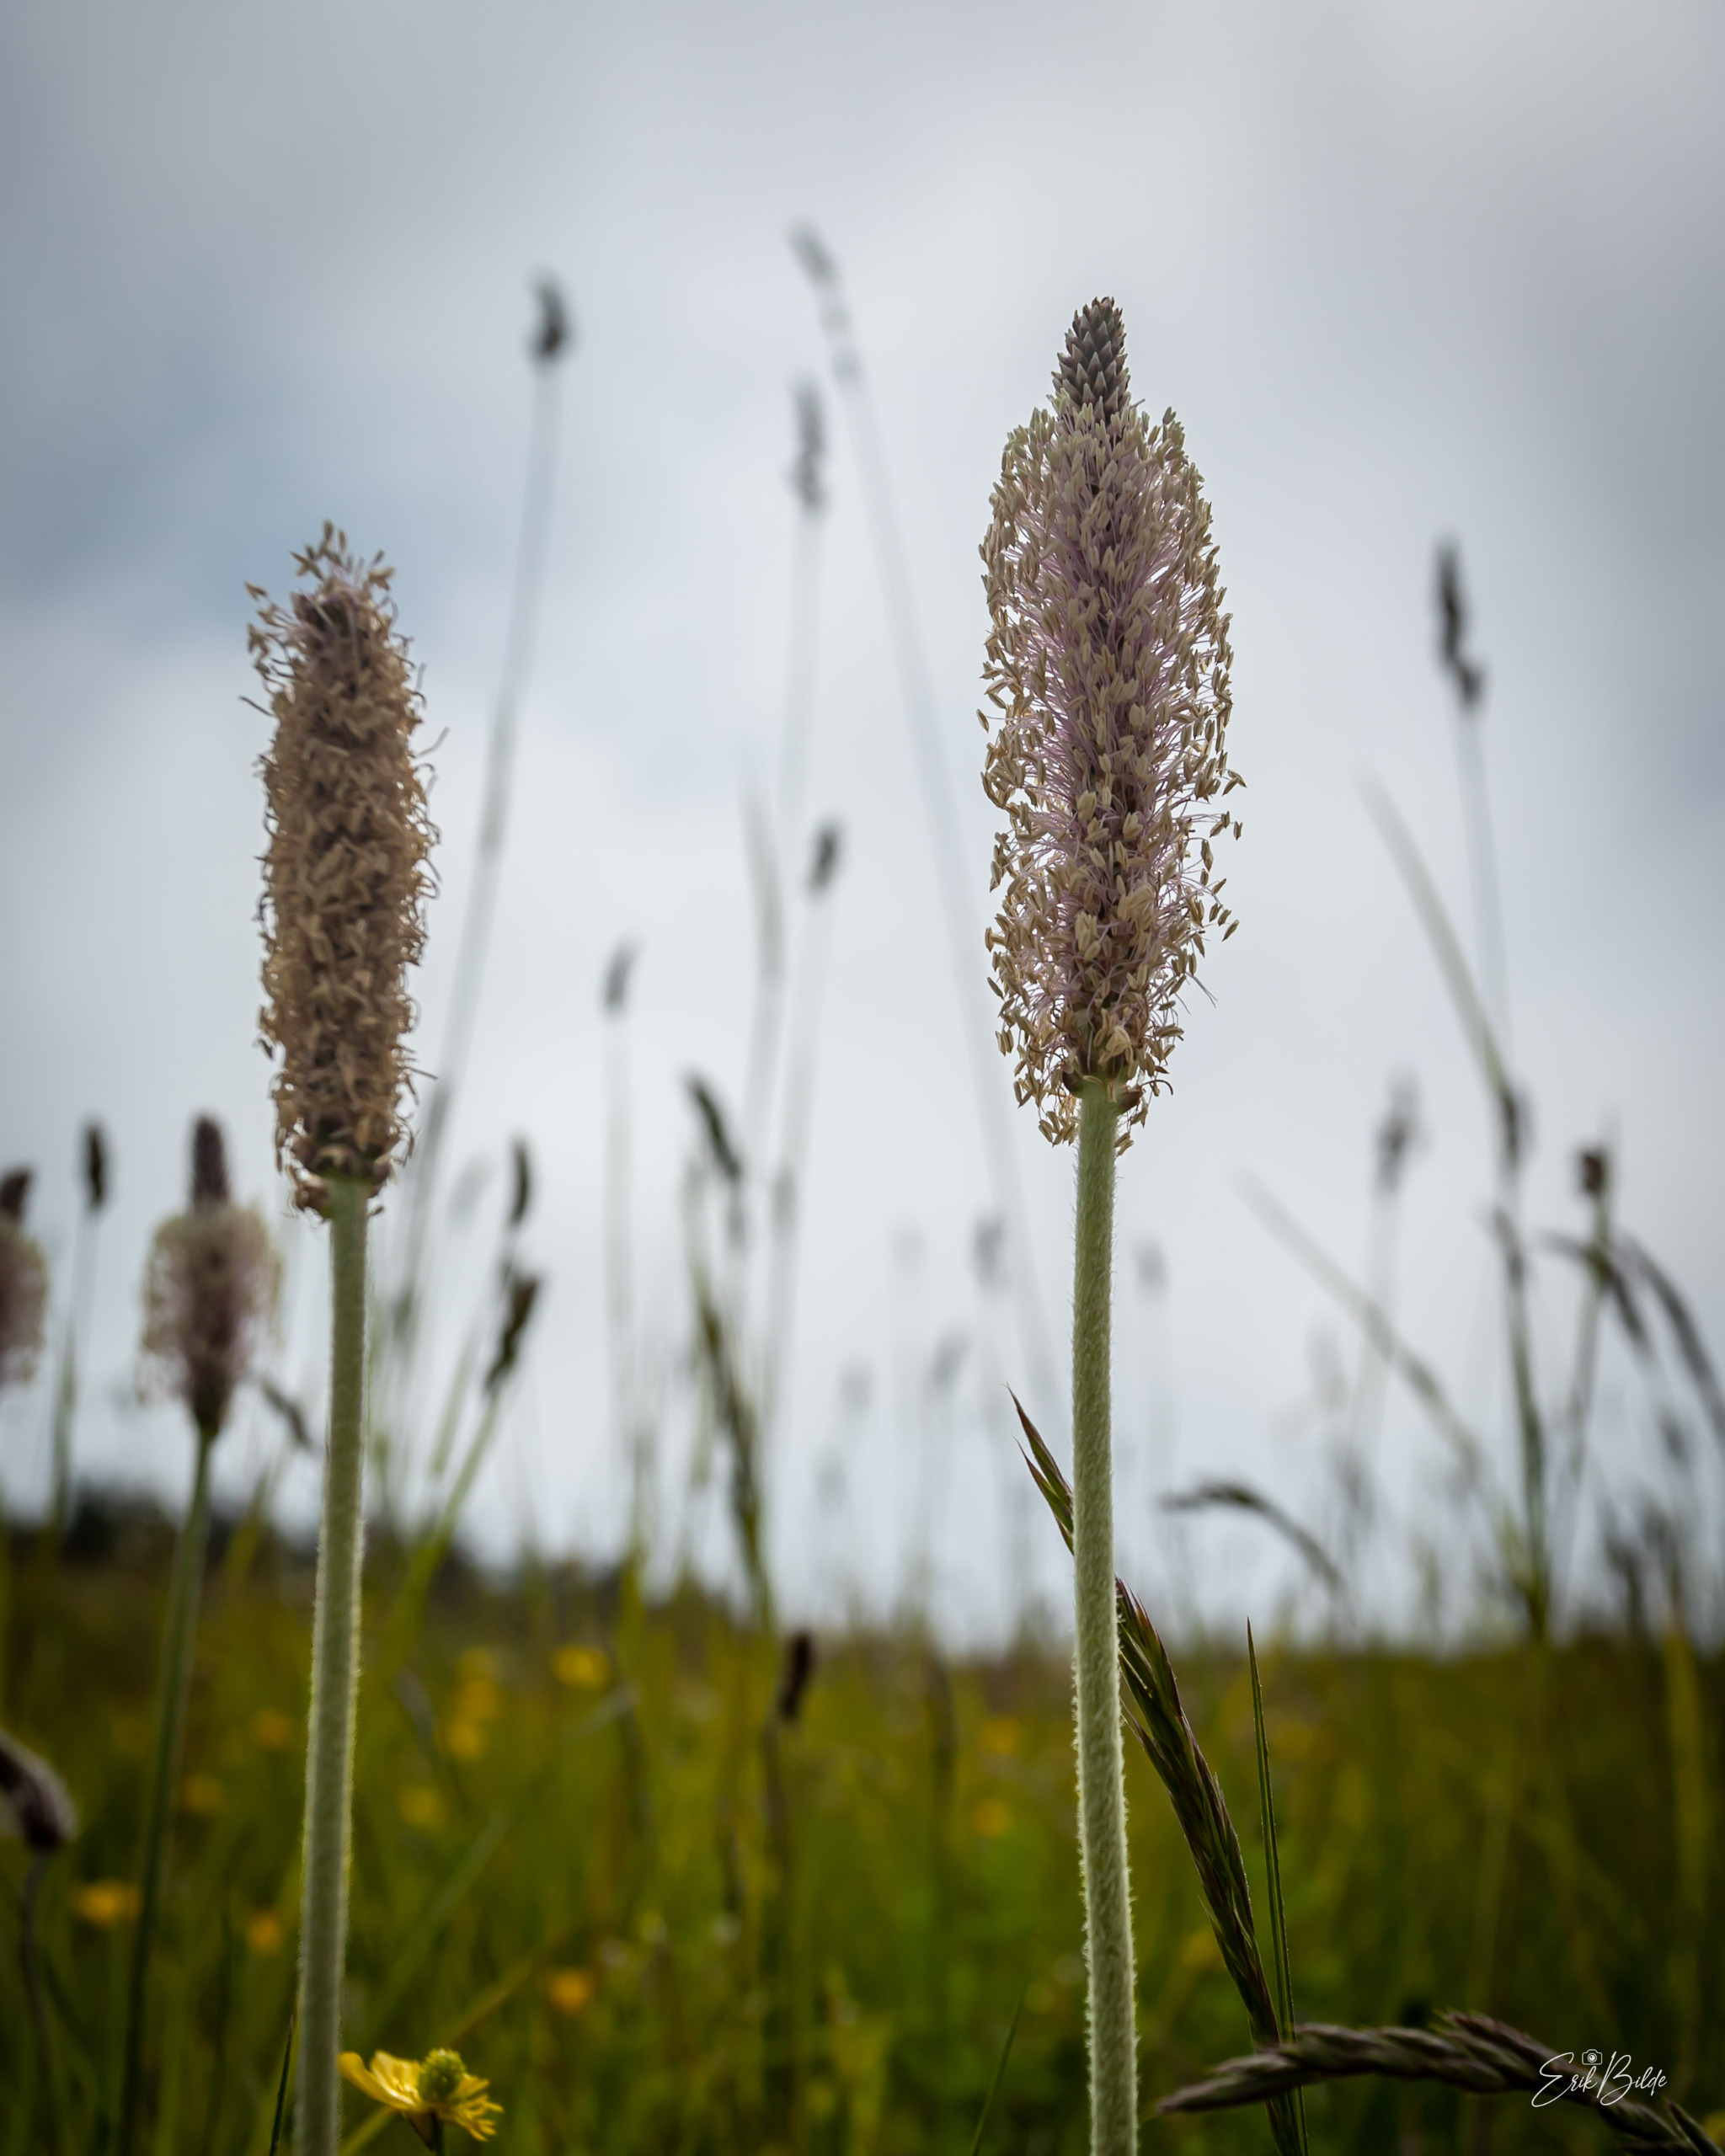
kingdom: Plantae
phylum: Tracheophyta
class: Magnoliopsida
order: Lamiales
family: Plantaginaceae
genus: Plantago
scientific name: Plantago media
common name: Dunet vejbred
